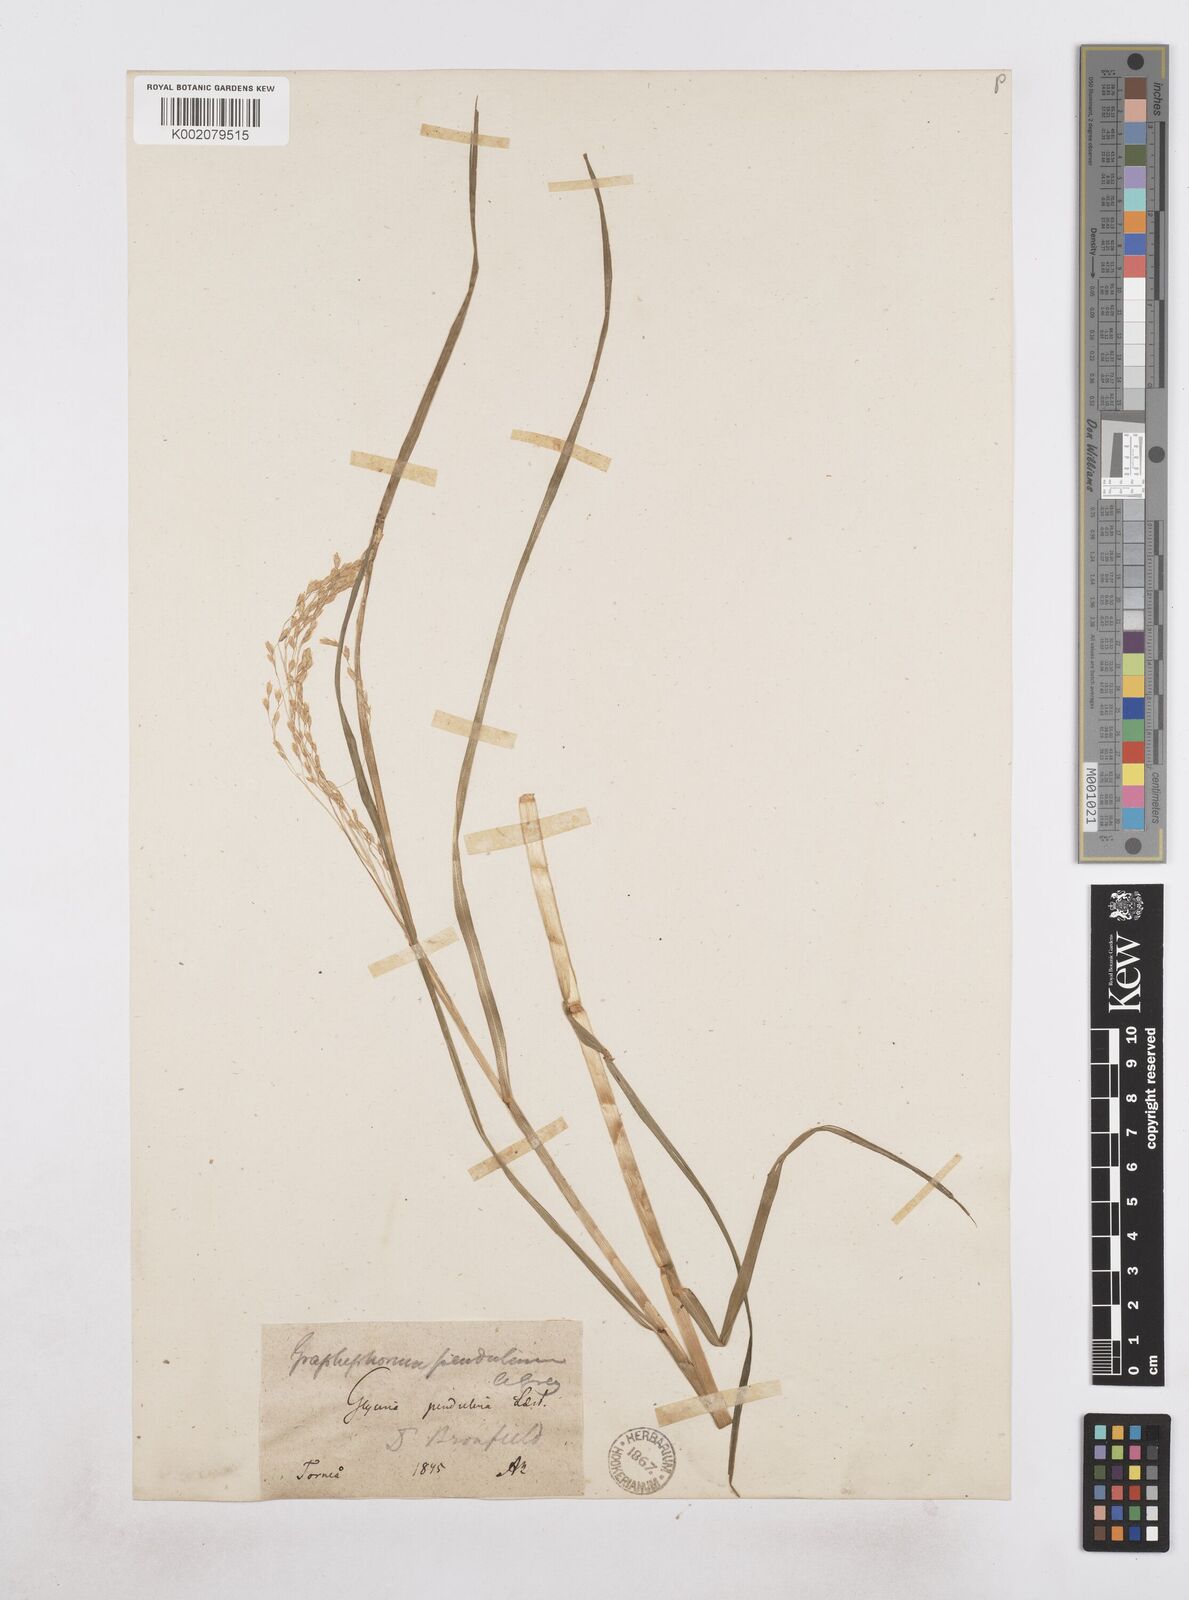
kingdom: Plantae
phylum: Tracheophyta
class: Liliopsida
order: Poales
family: Poaceae
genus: Dupontia
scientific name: Dupontia fulva
